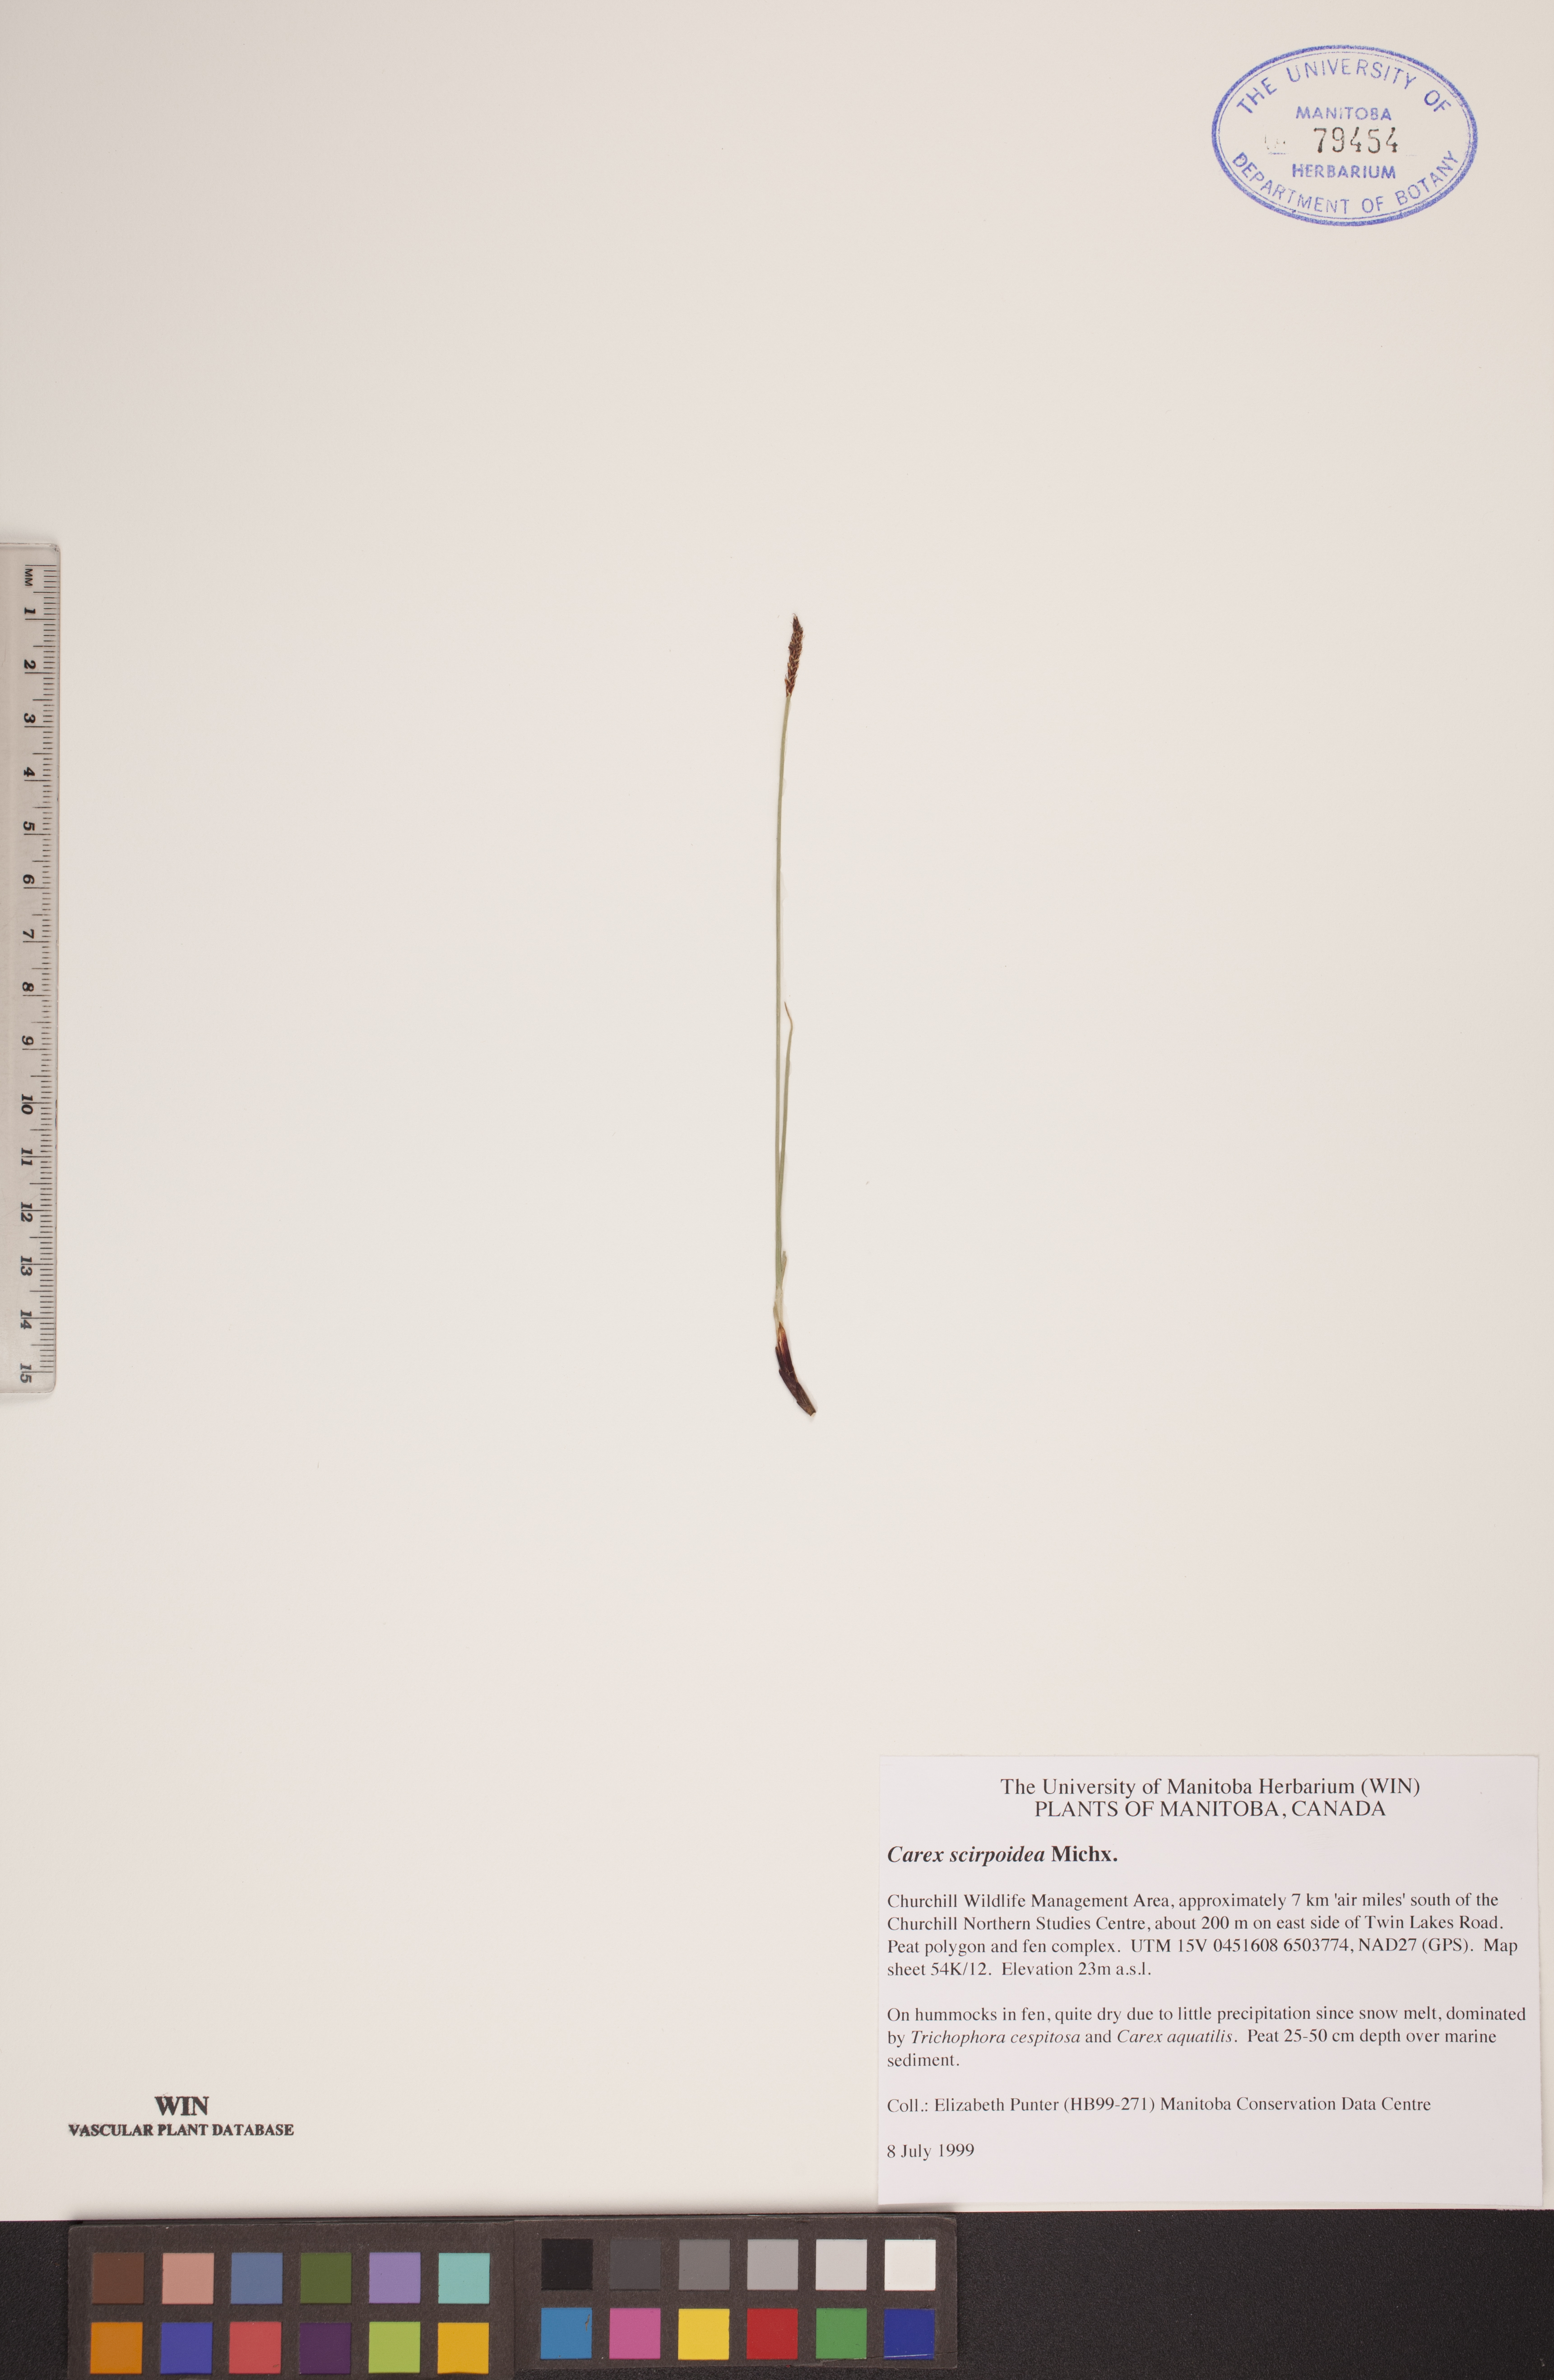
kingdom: Plantae
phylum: Tracheophyta
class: Liliopsida
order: Poales
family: Cyperaceae
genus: Carex
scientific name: Carex scirpoidea
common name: Canada single-spike sedge
